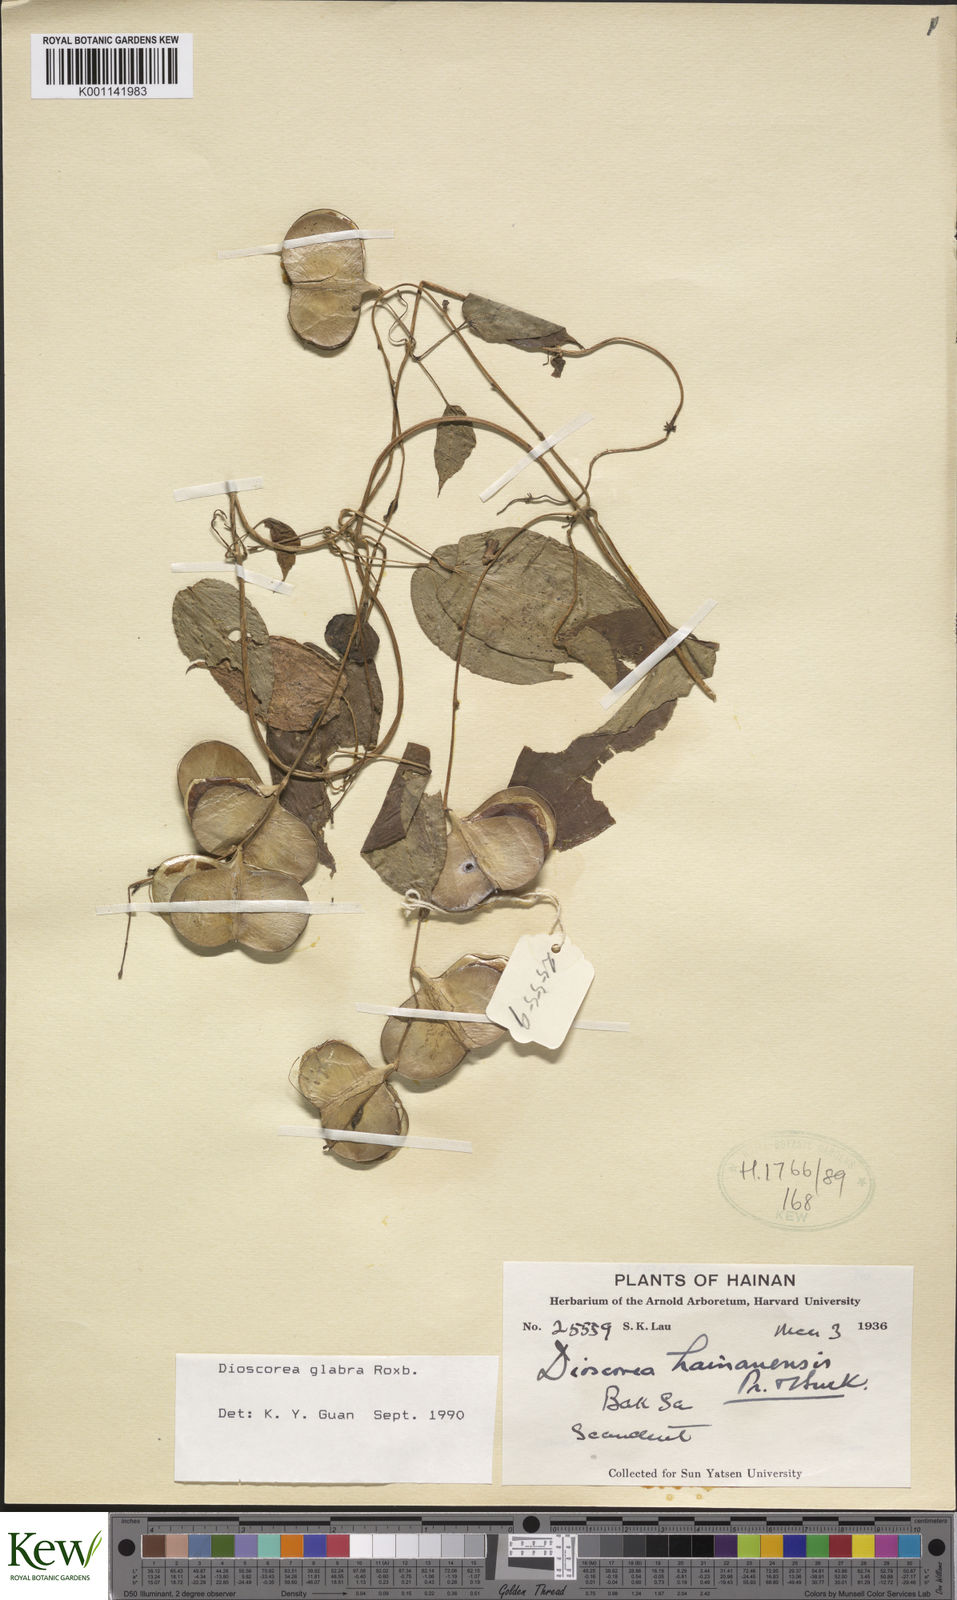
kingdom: Plantae
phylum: Tracheophyta
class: Liliopsida
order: Dioscoreales
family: Dioscoreaceae
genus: Dioscorea
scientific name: Dioscorea glabra
